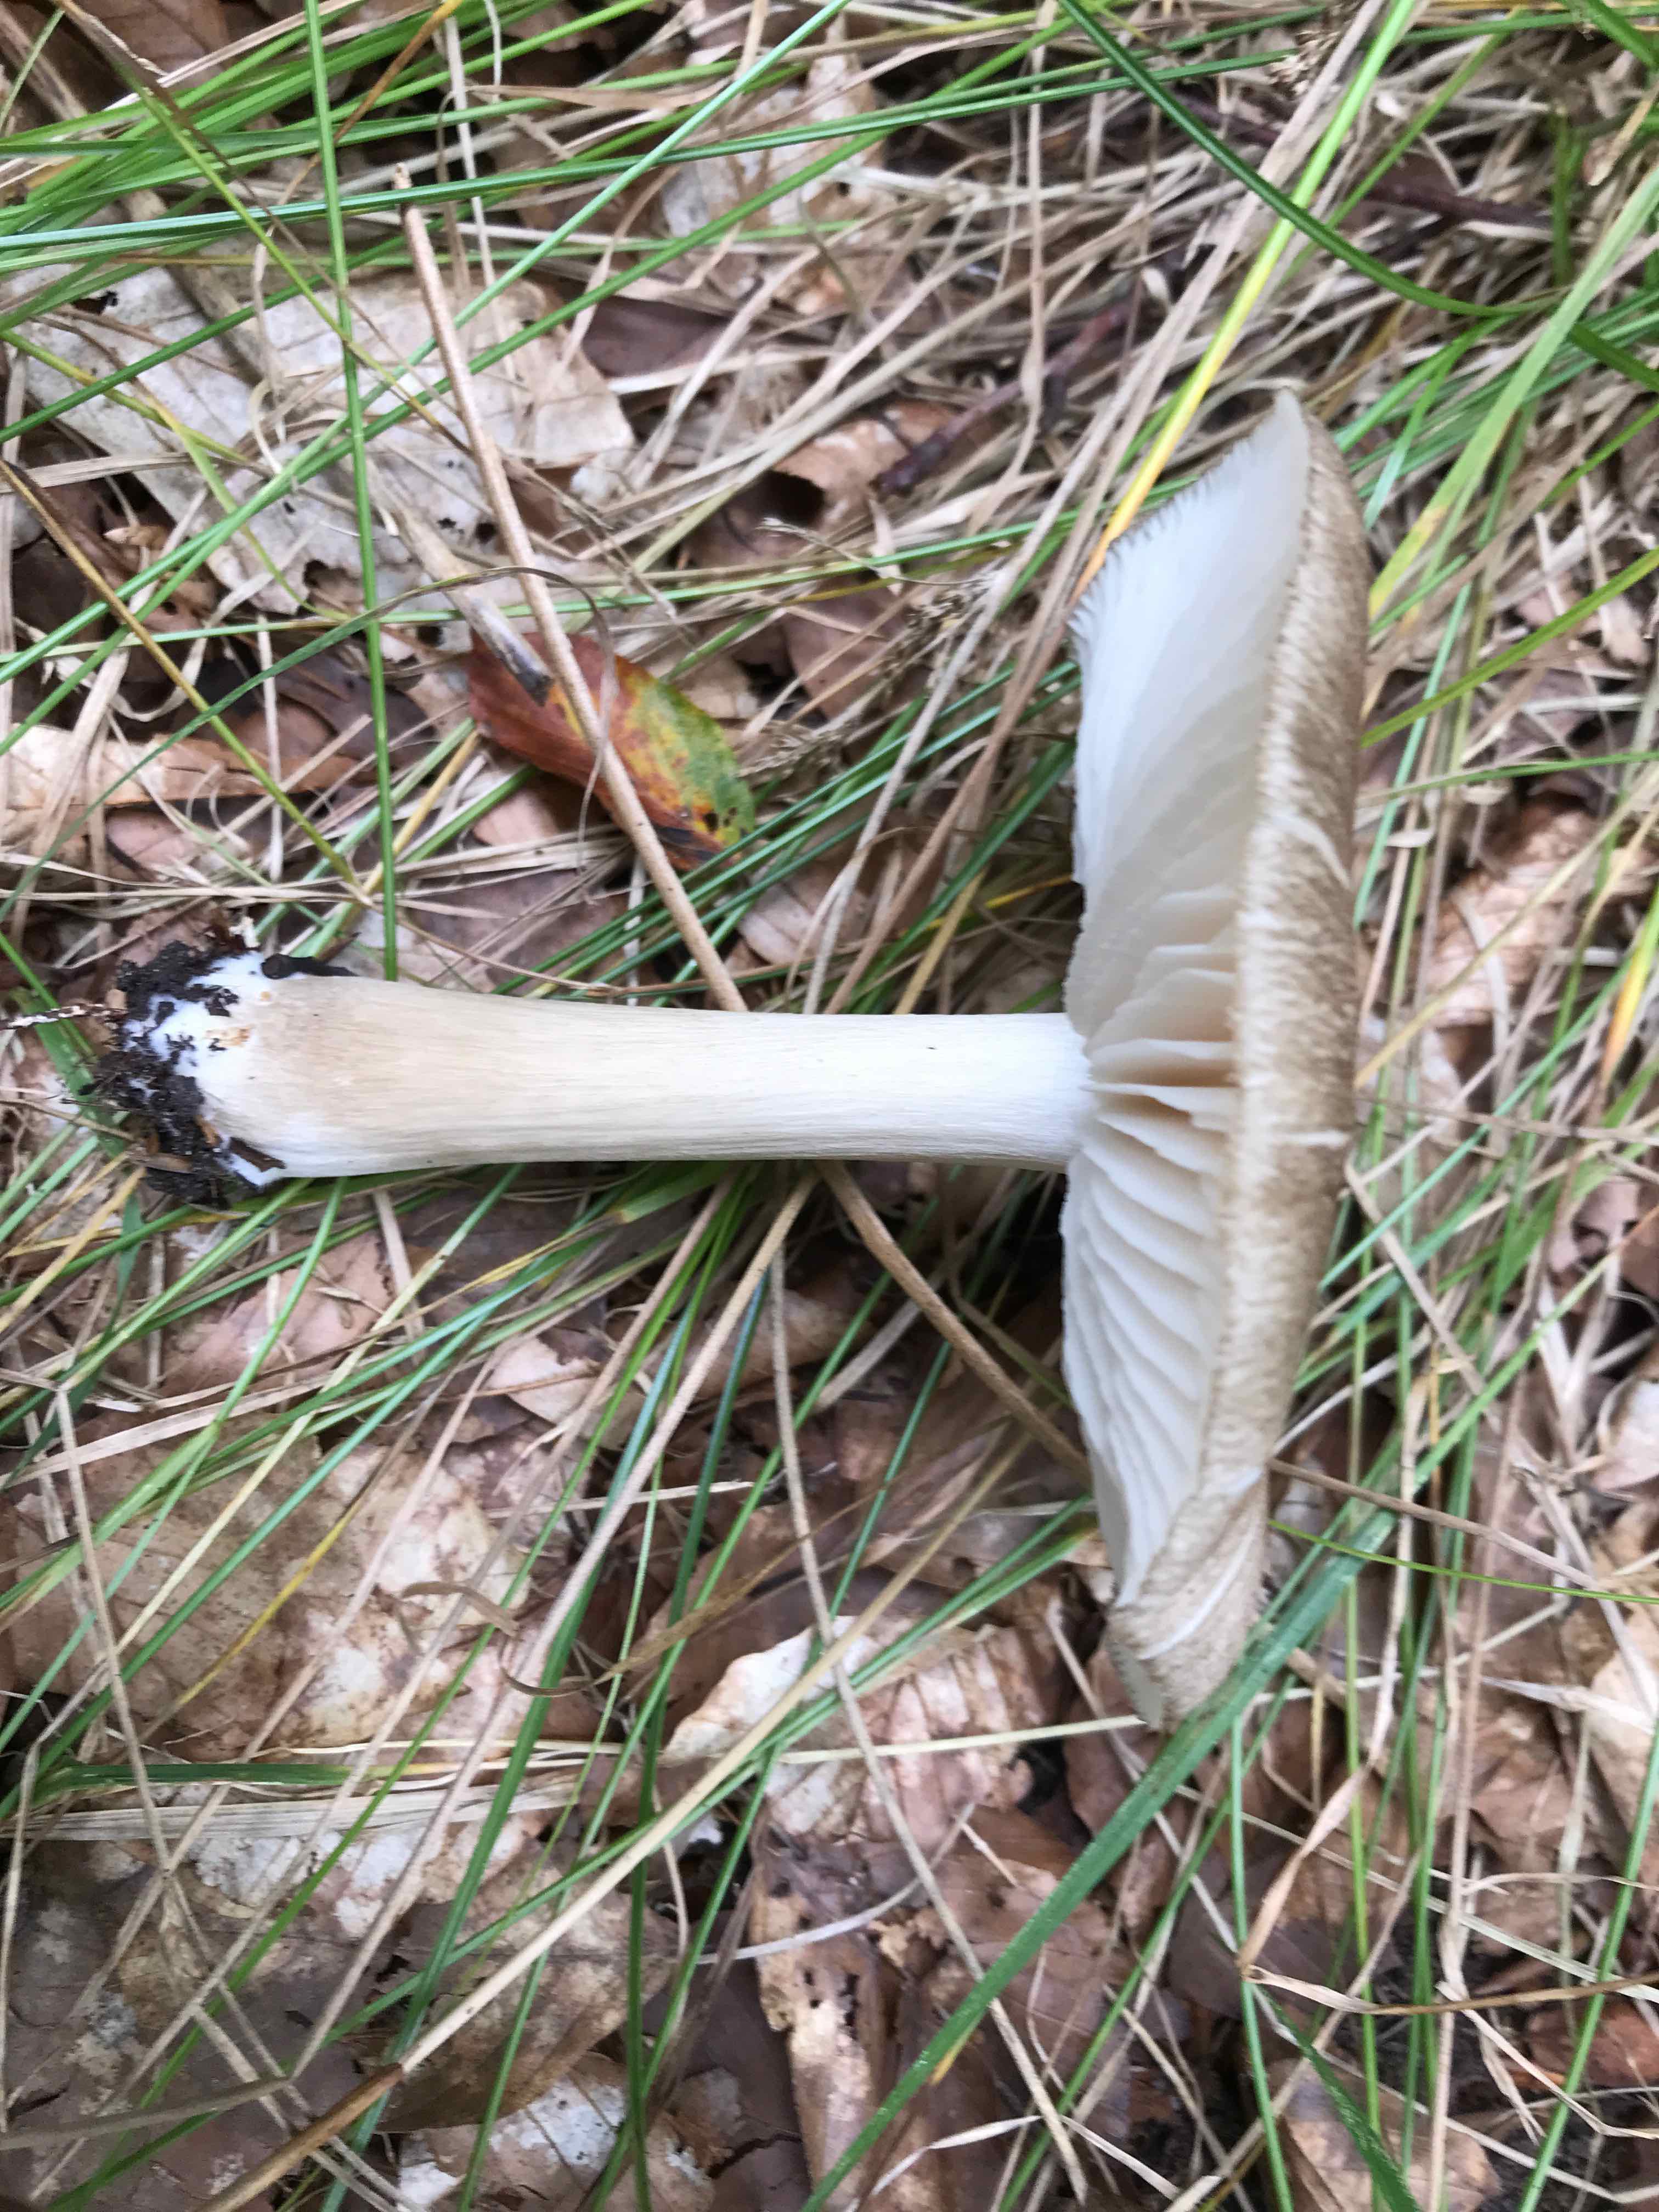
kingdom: Fungi
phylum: Basidiomycota
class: Agaricomycetes
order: Agaricales
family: Tricholomataceae
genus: Megacollybia
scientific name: Megacollybia platyphylla
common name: bredbladet væbnerhat
